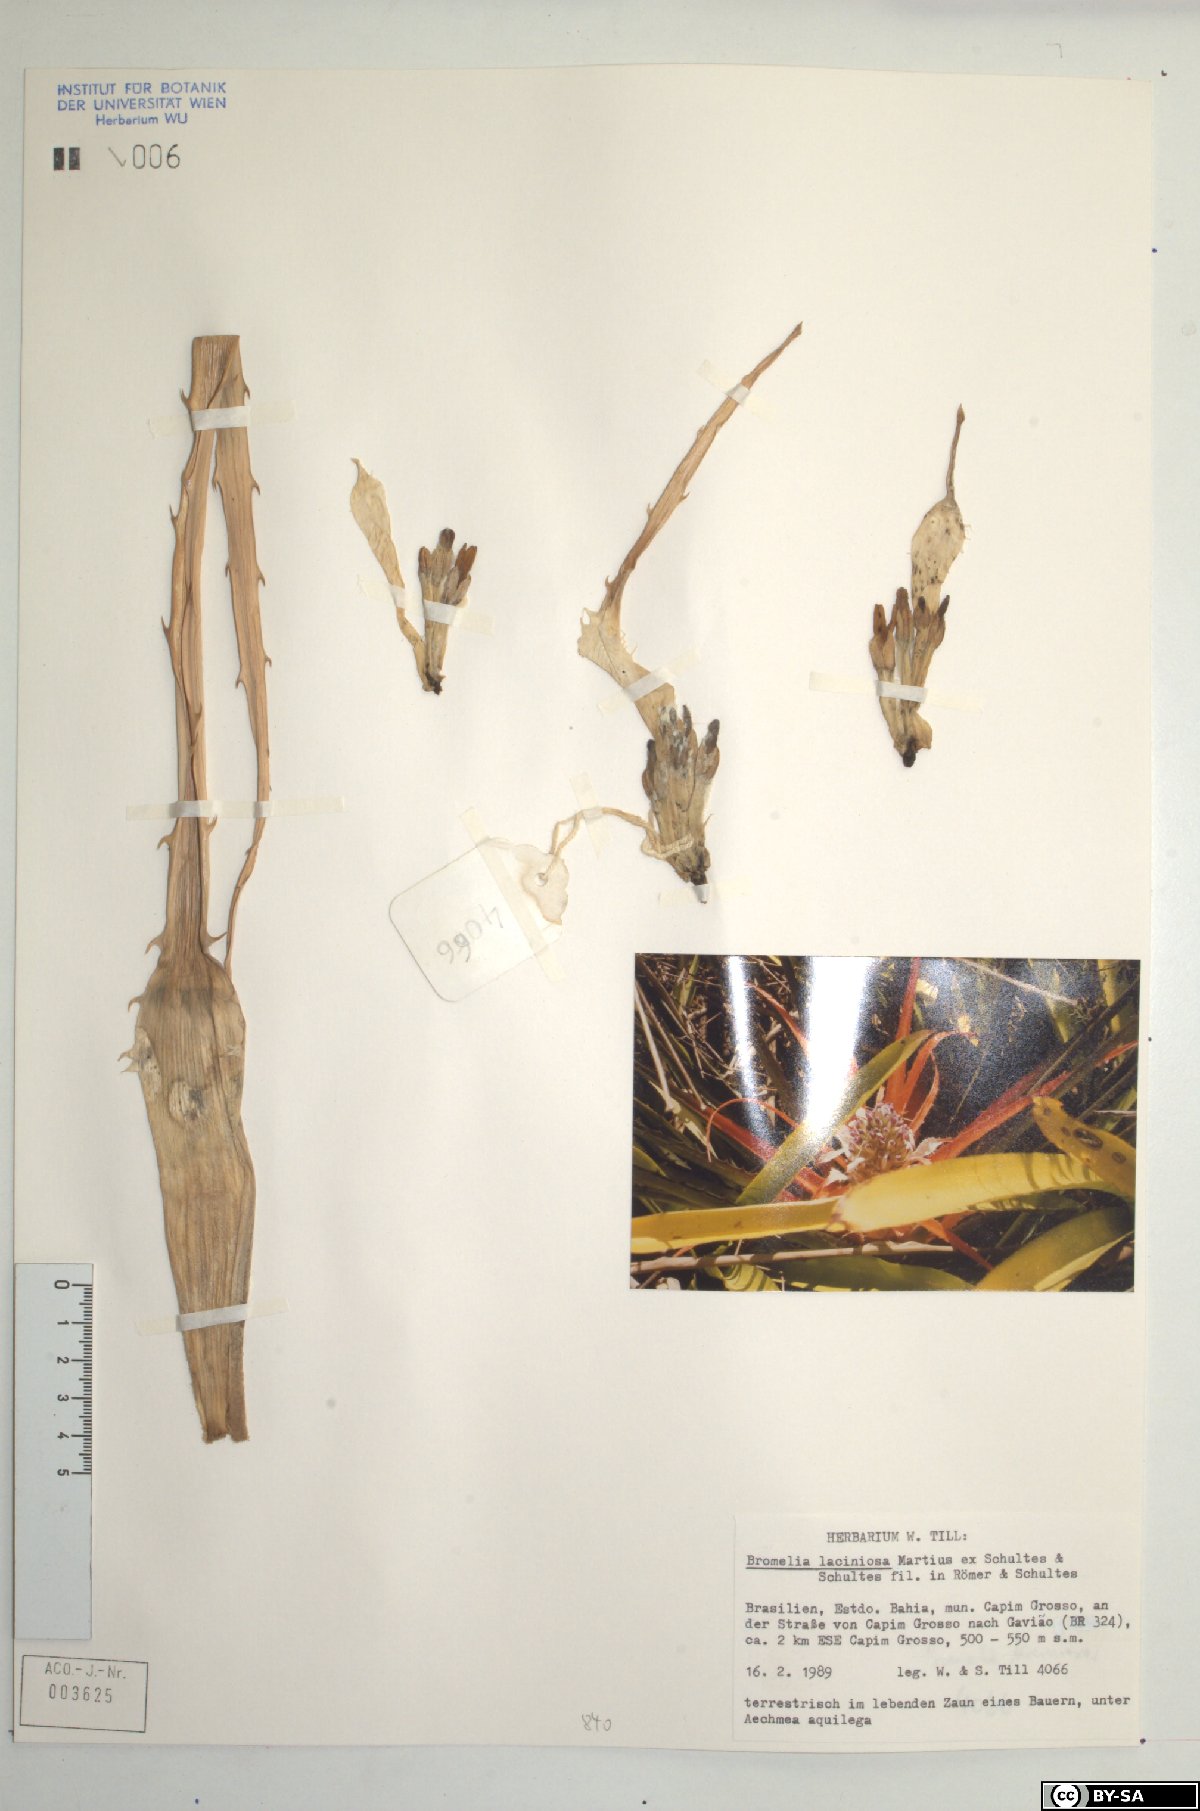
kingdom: Plantae
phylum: Tracheophyta
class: Liliopsida
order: Poales
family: Bromeliaceae
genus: Bromelia
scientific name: Bromelia laciniosa
